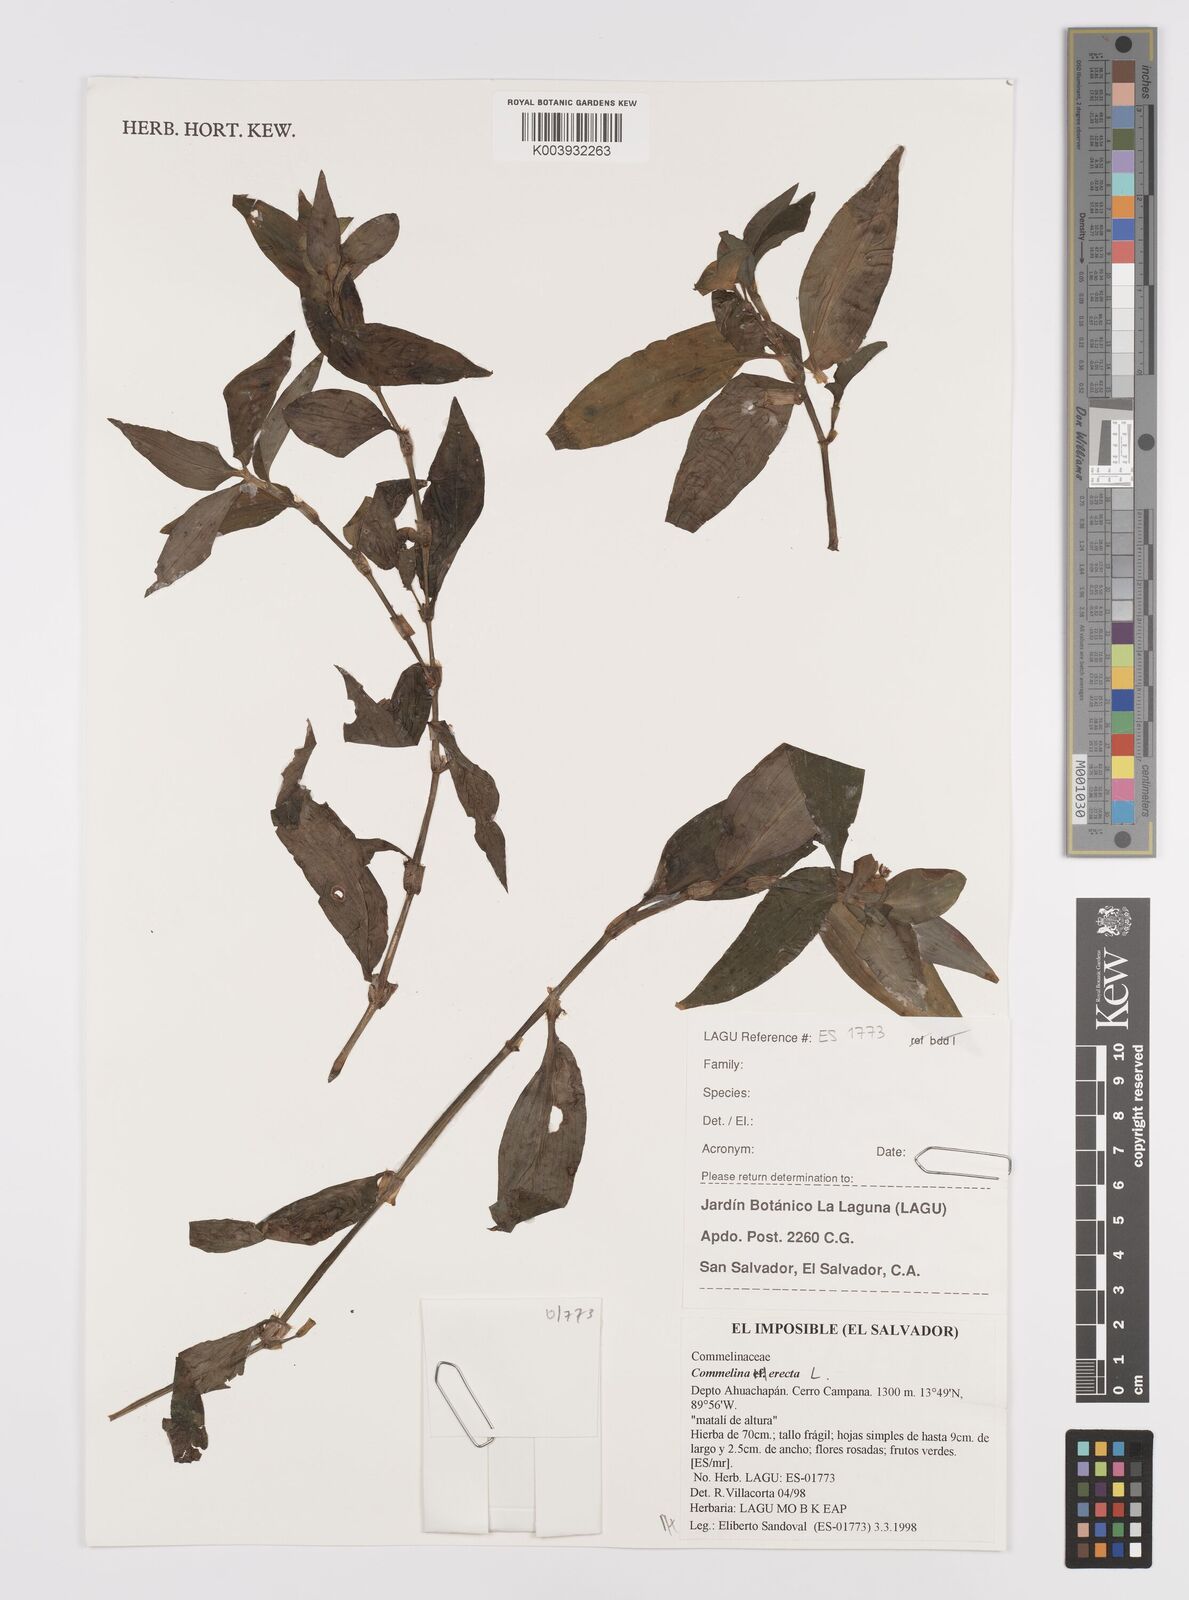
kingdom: Plantae
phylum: Tracheophyta
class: Liliopsida
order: Commelinales
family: Commelinaceae
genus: Commelina
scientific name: Commelina erecta
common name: Blousel blommetjie
